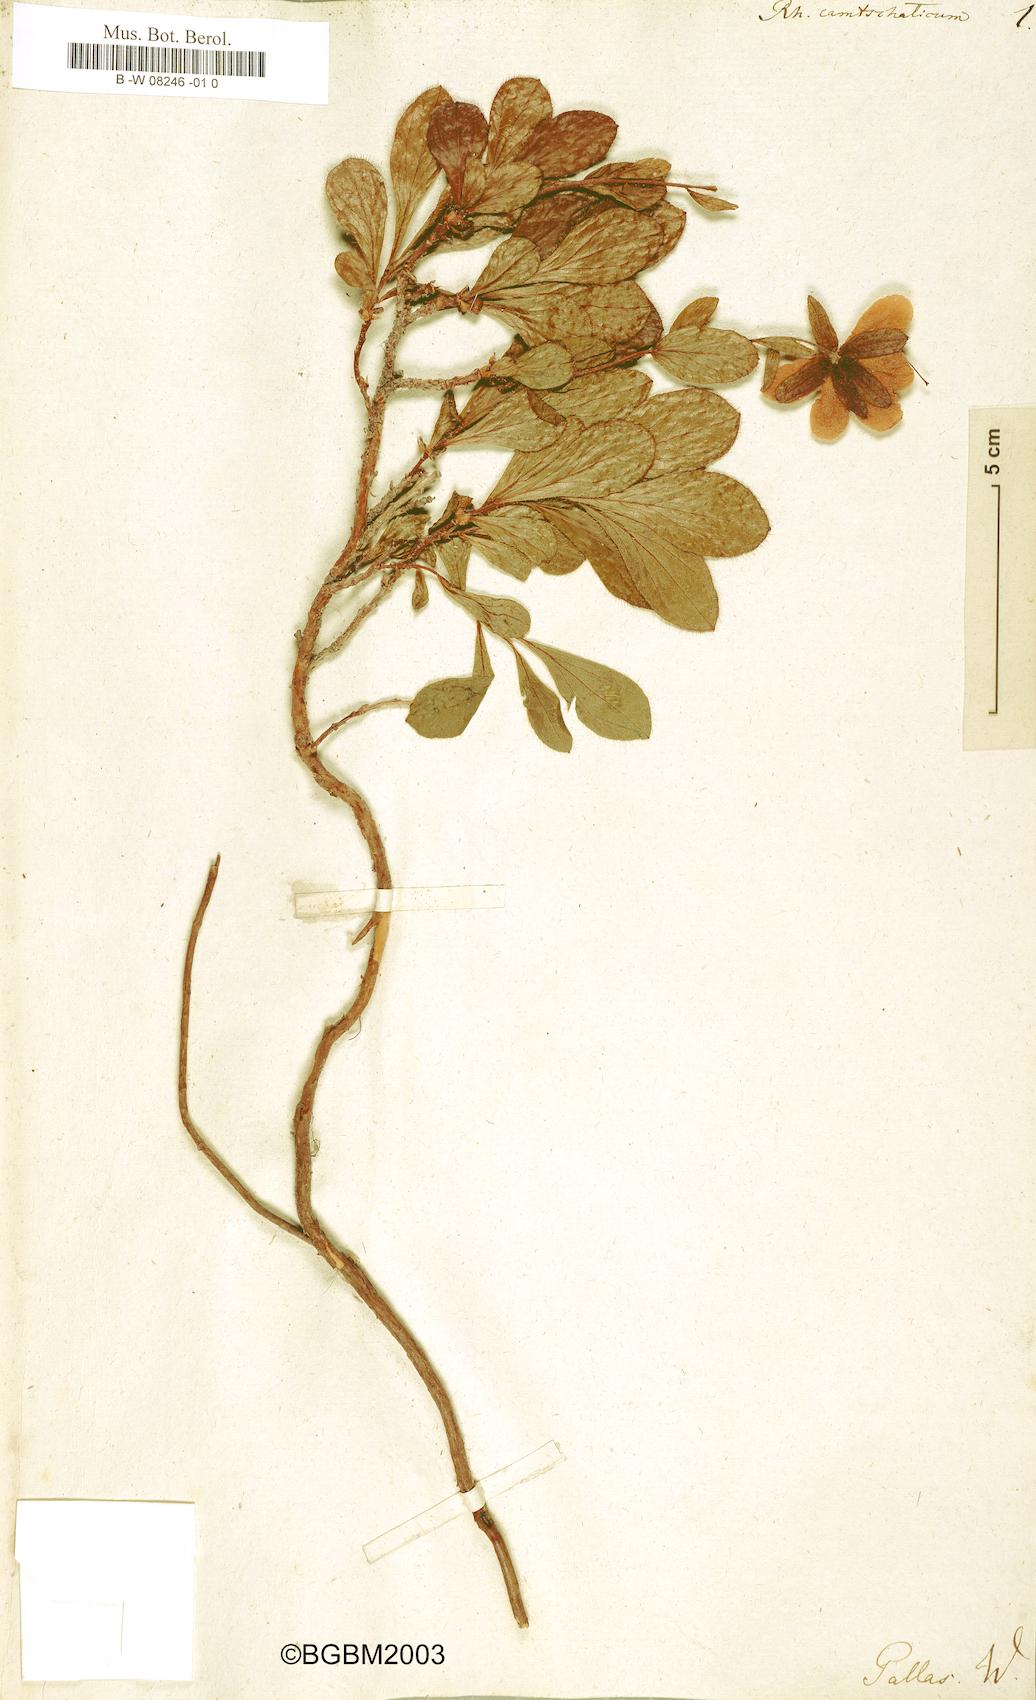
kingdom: Plantae
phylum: Tracheophyta
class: Magnoliopsida
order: Ericales
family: Ericaceae
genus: Rhododendron
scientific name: Rhododendron camtschaticum
